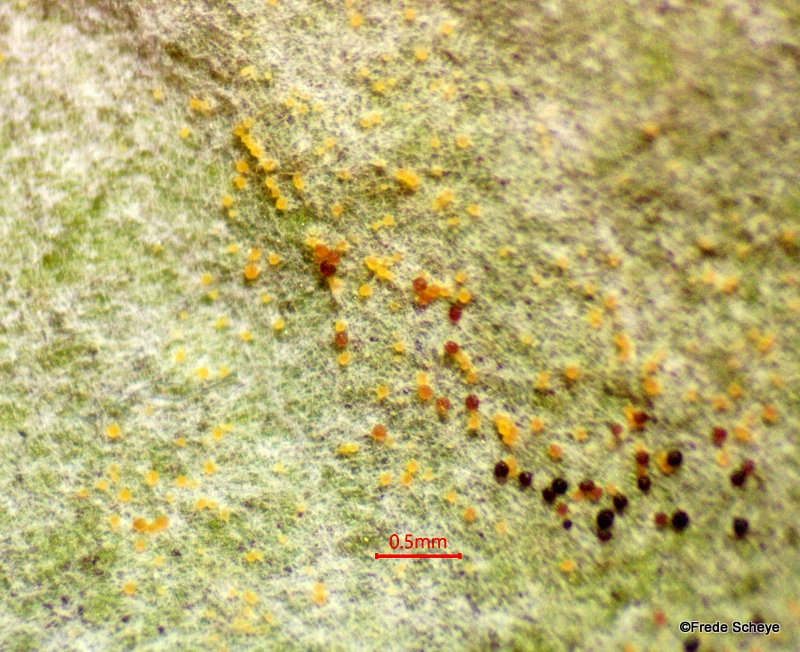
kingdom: Fungi
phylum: Ascomycota
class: Leotiomycetes
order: Helotiales
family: Erysiphaceae
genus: Erysiphe
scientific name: Erysiphe convolvuli
